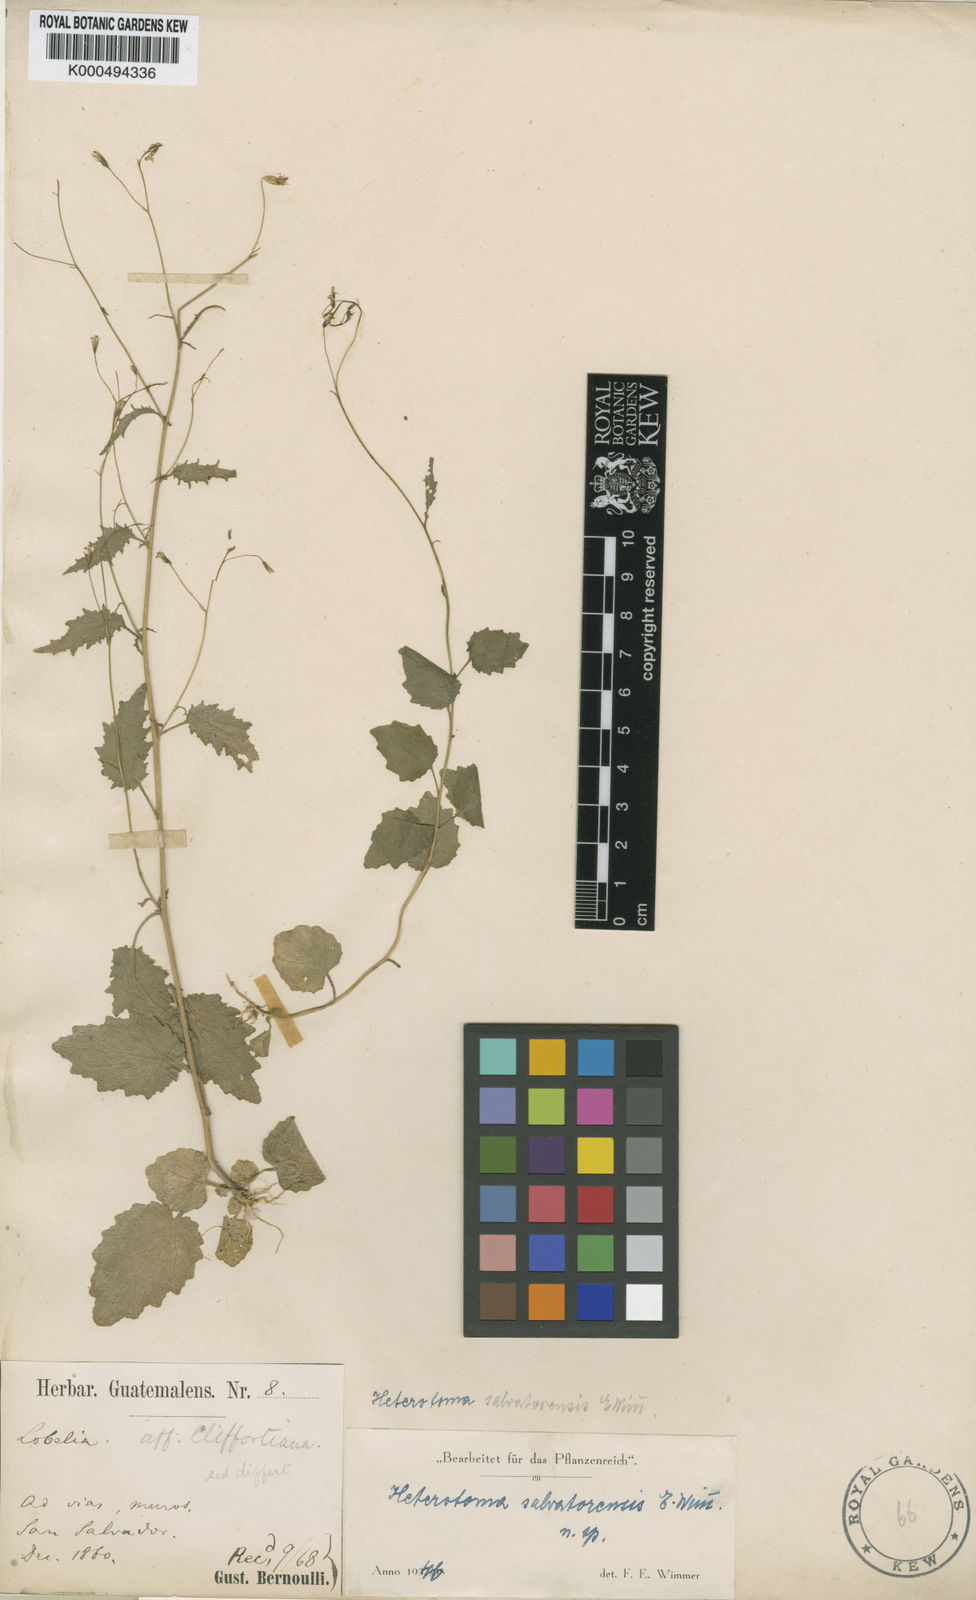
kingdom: Plantae
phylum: Tracheophyta
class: Magnoliopsida
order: Asterales
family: Campanulaceae
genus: Lobelia
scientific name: Lobelia cordifolia
